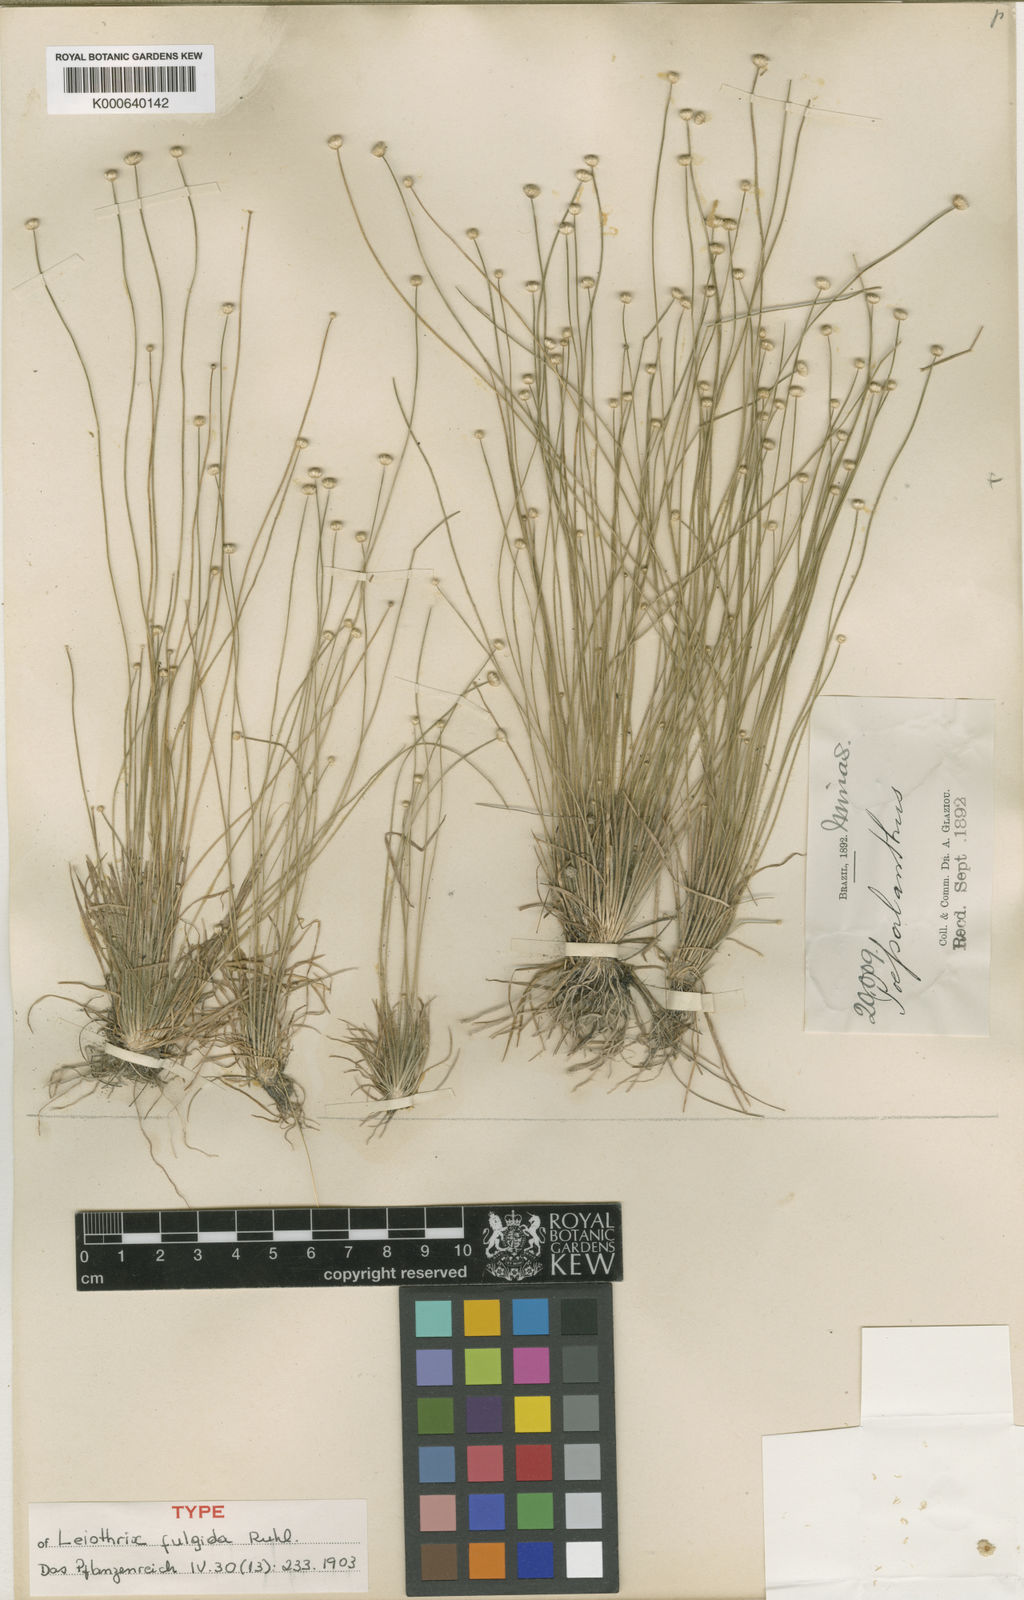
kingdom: Plantae
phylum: Tracheophyta
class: Liliopsida
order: Poales
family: Eriocaulaceae
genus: Leiothrix
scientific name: Leiothrix fulgida
